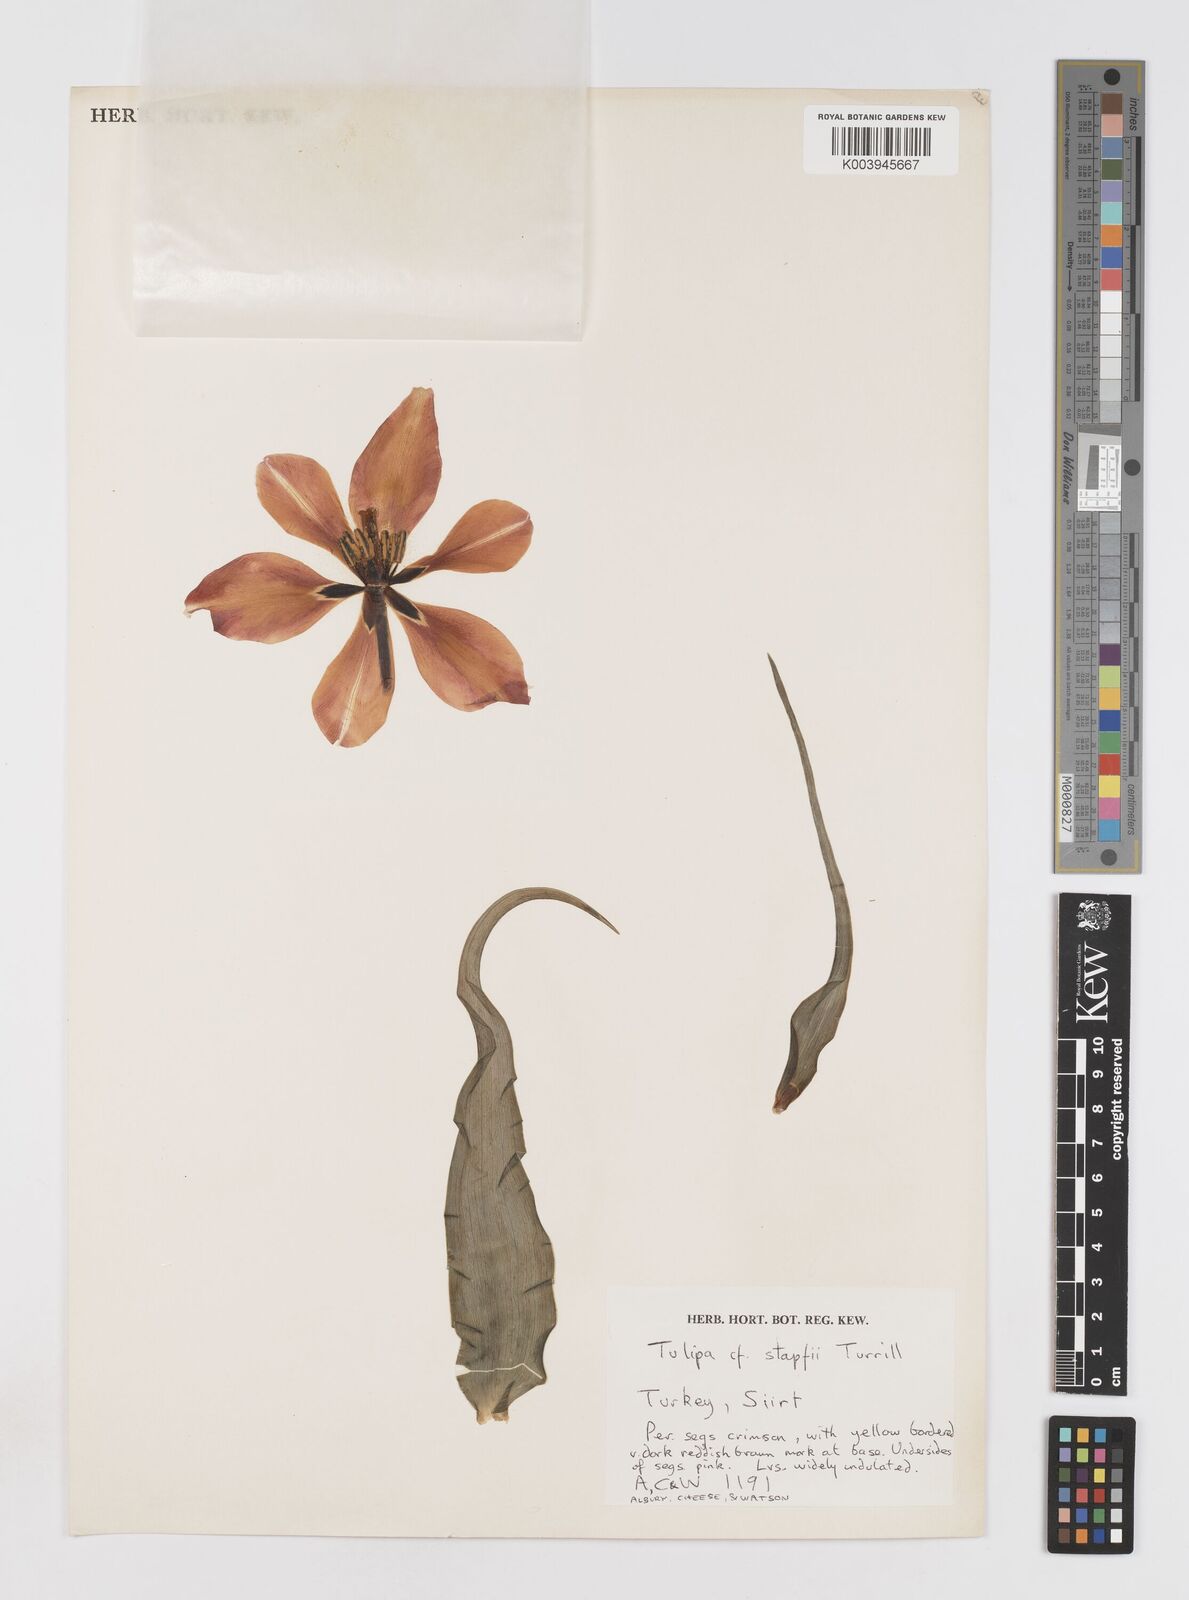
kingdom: Plantae
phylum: Tracheophyta
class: Liliopsida
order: Liliales
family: Liliaceae
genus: Tulipa
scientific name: Tulipa aleppensis
